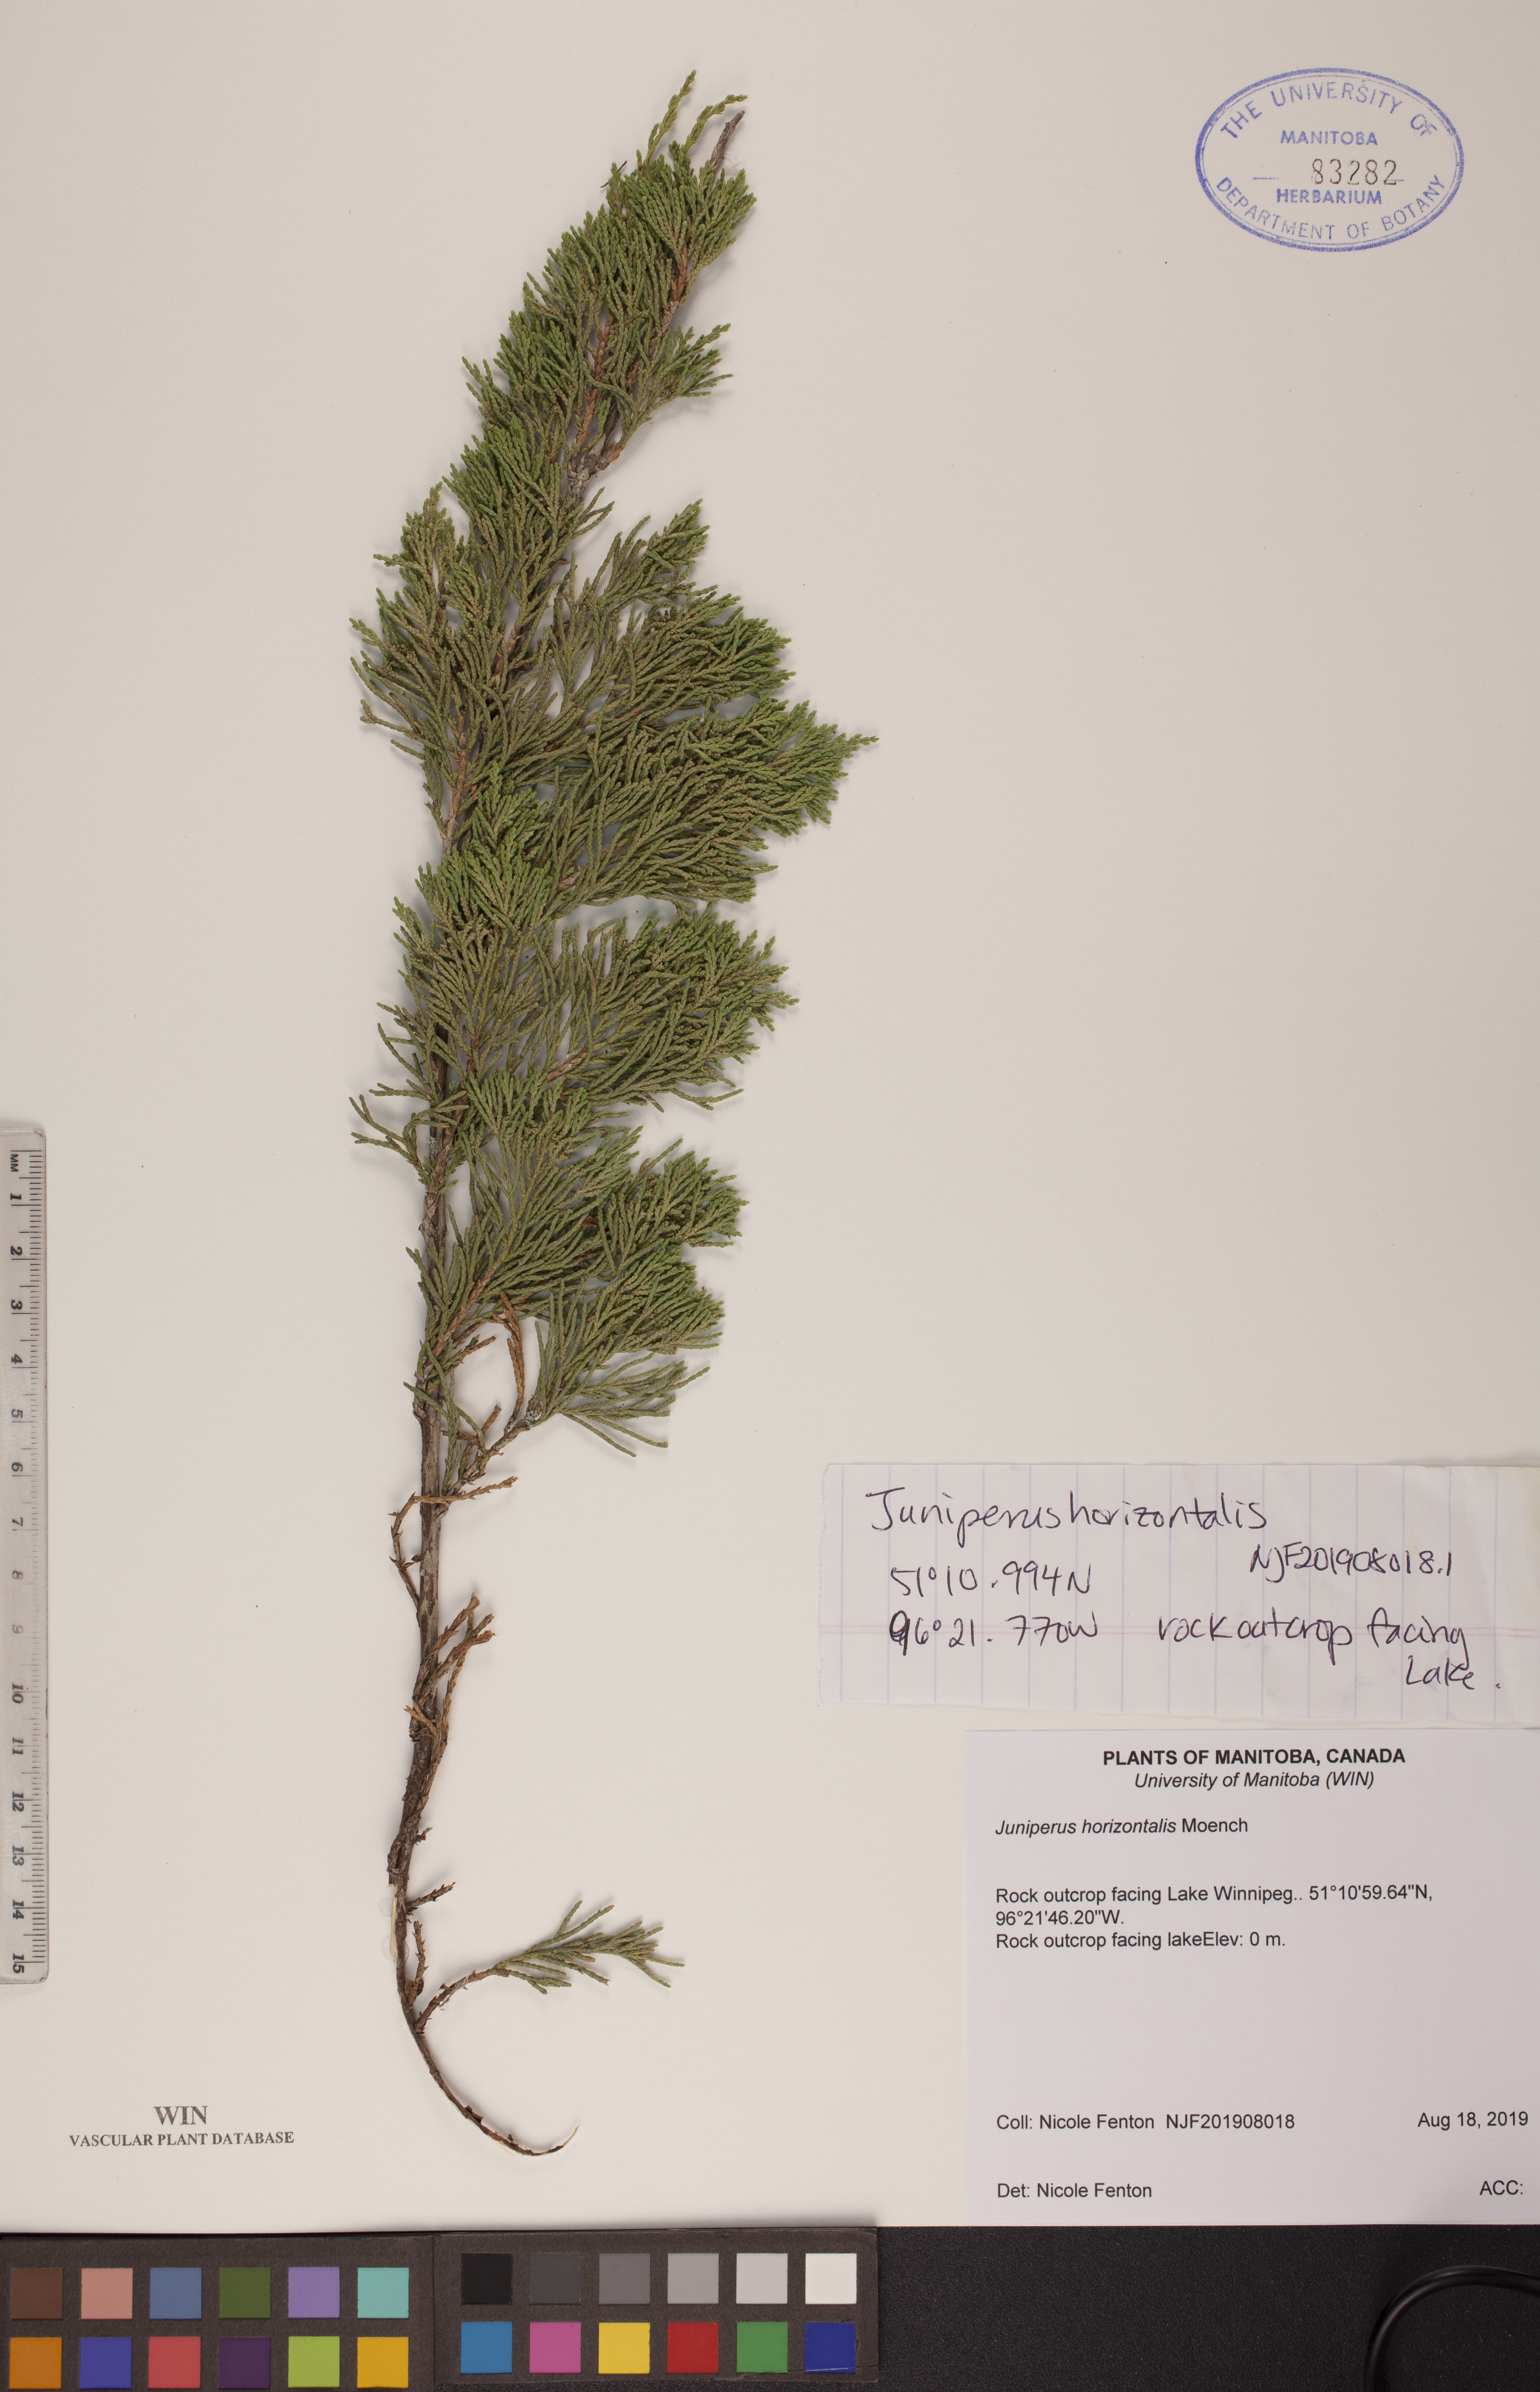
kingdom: Plantae
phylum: Tracheophyta
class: Pinopsida
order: Pinales
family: Cupressaceae
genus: Juniperus
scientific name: Juniperus horizontalis
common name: Creeping juniper
